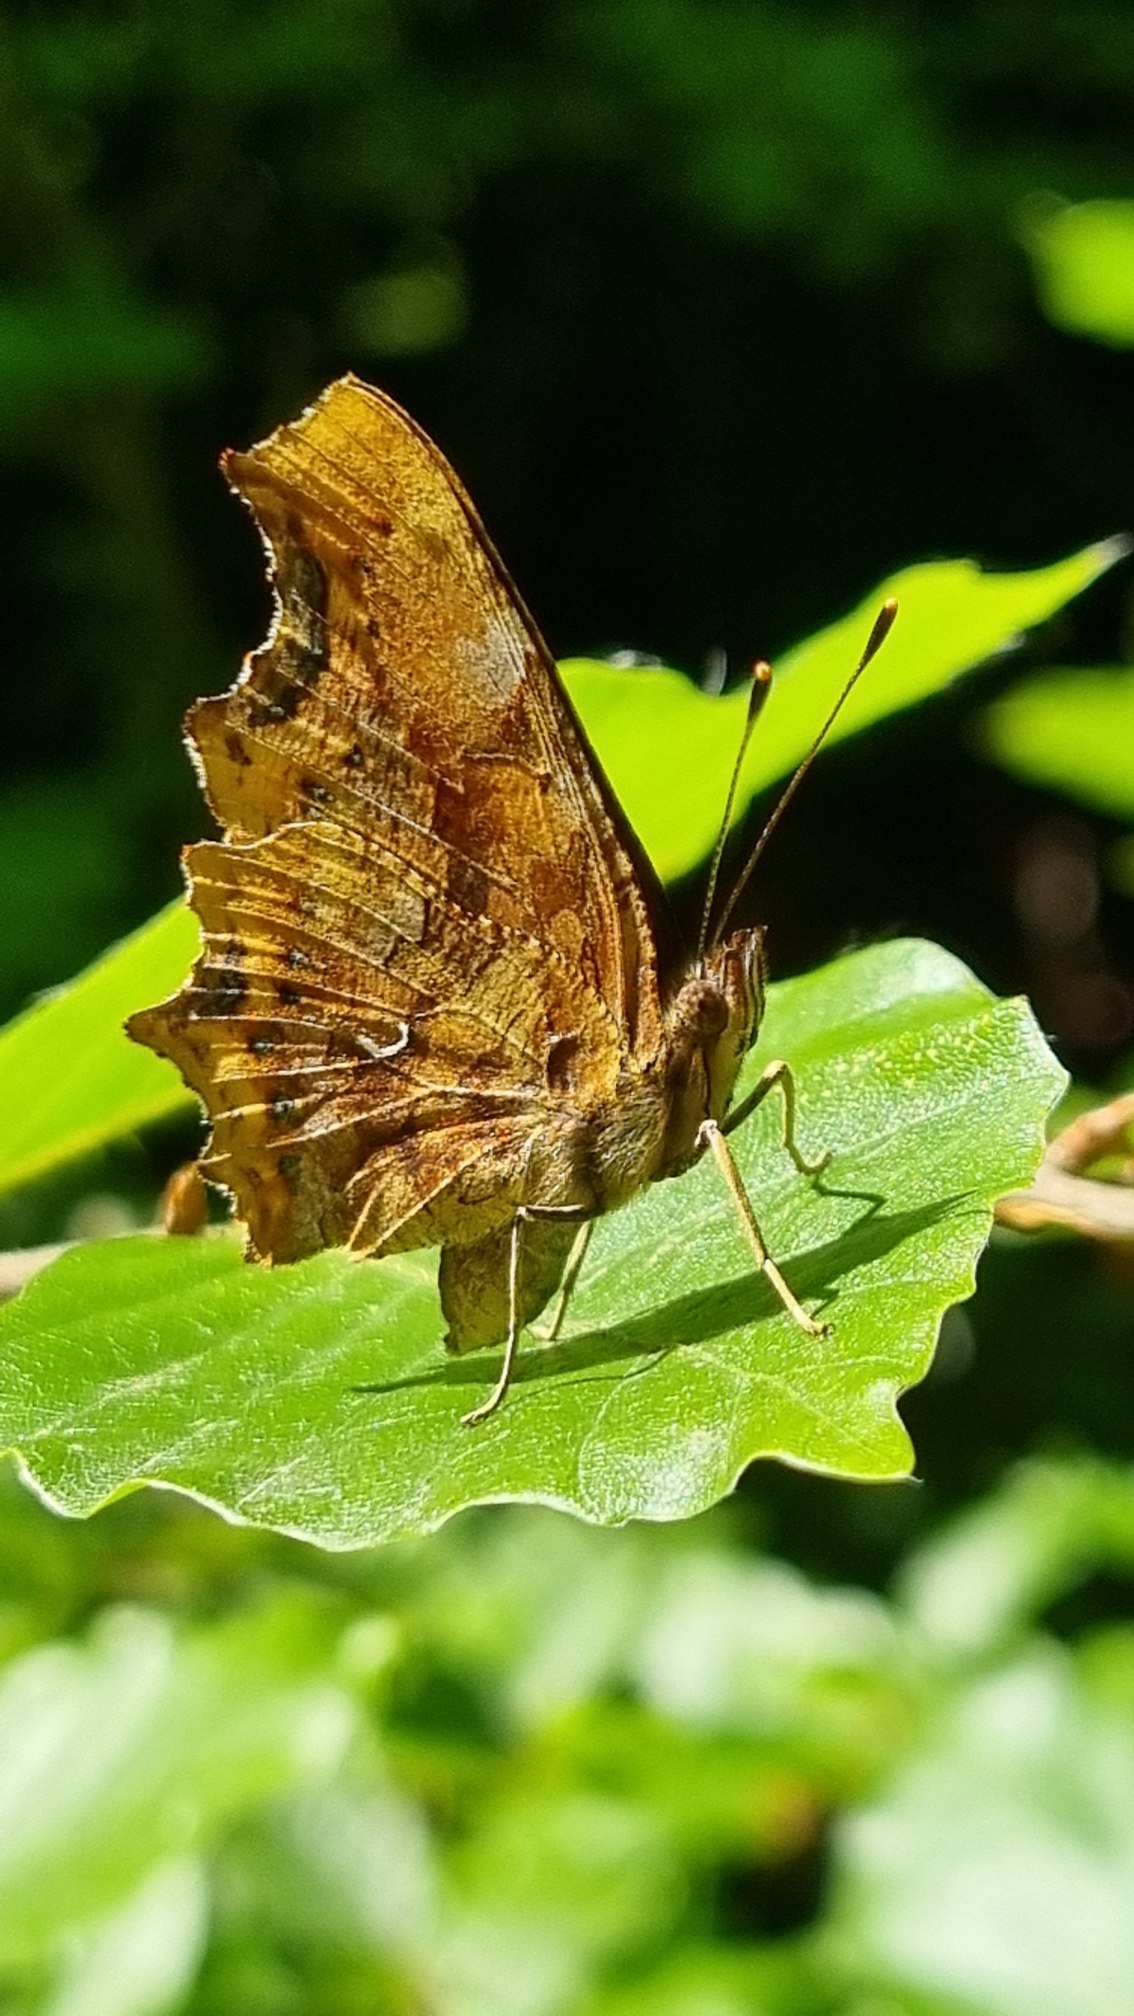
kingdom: Animalia
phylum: Arthropoda
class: Insecta
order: Lepidoptera
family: Nymphalidae
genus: Polygonia
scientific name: Polygonia c-album
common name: Det hvide C
